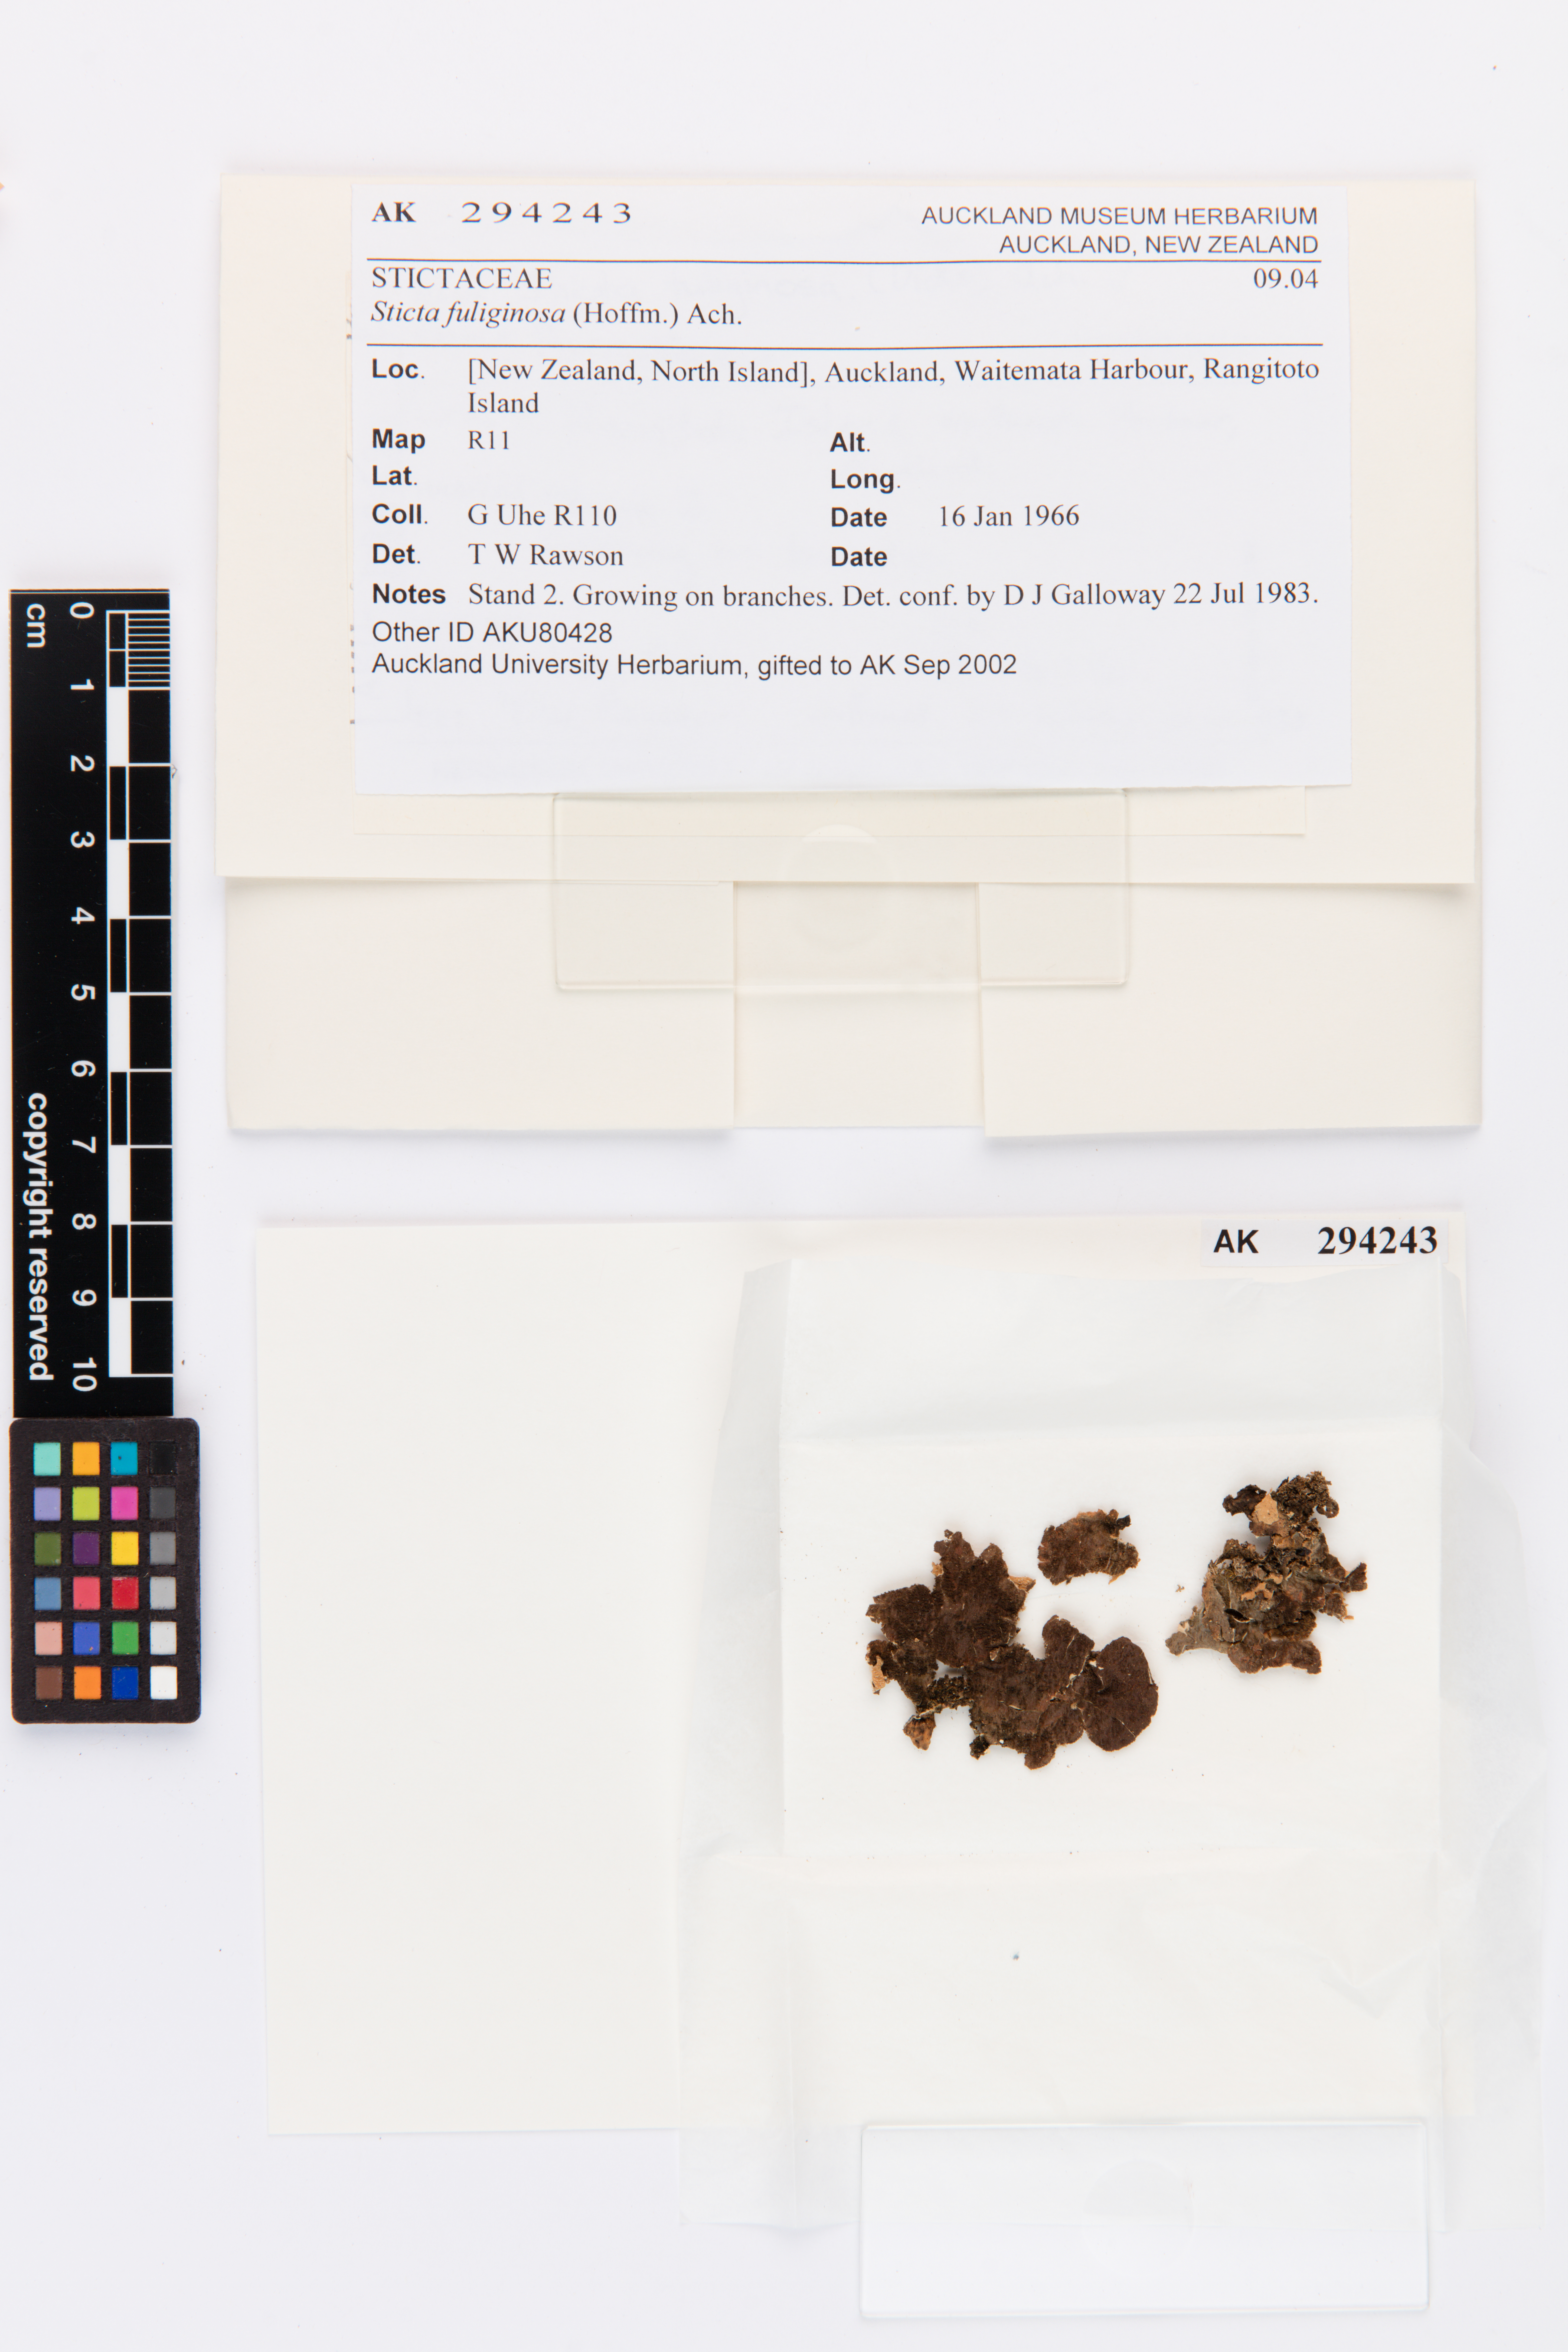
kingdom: Fungi
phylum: Ascomycota
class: Lecanoromycetes
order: Peltigerales
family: Lobariaceae
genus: Sticta
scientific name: Sticta fuliginosa
